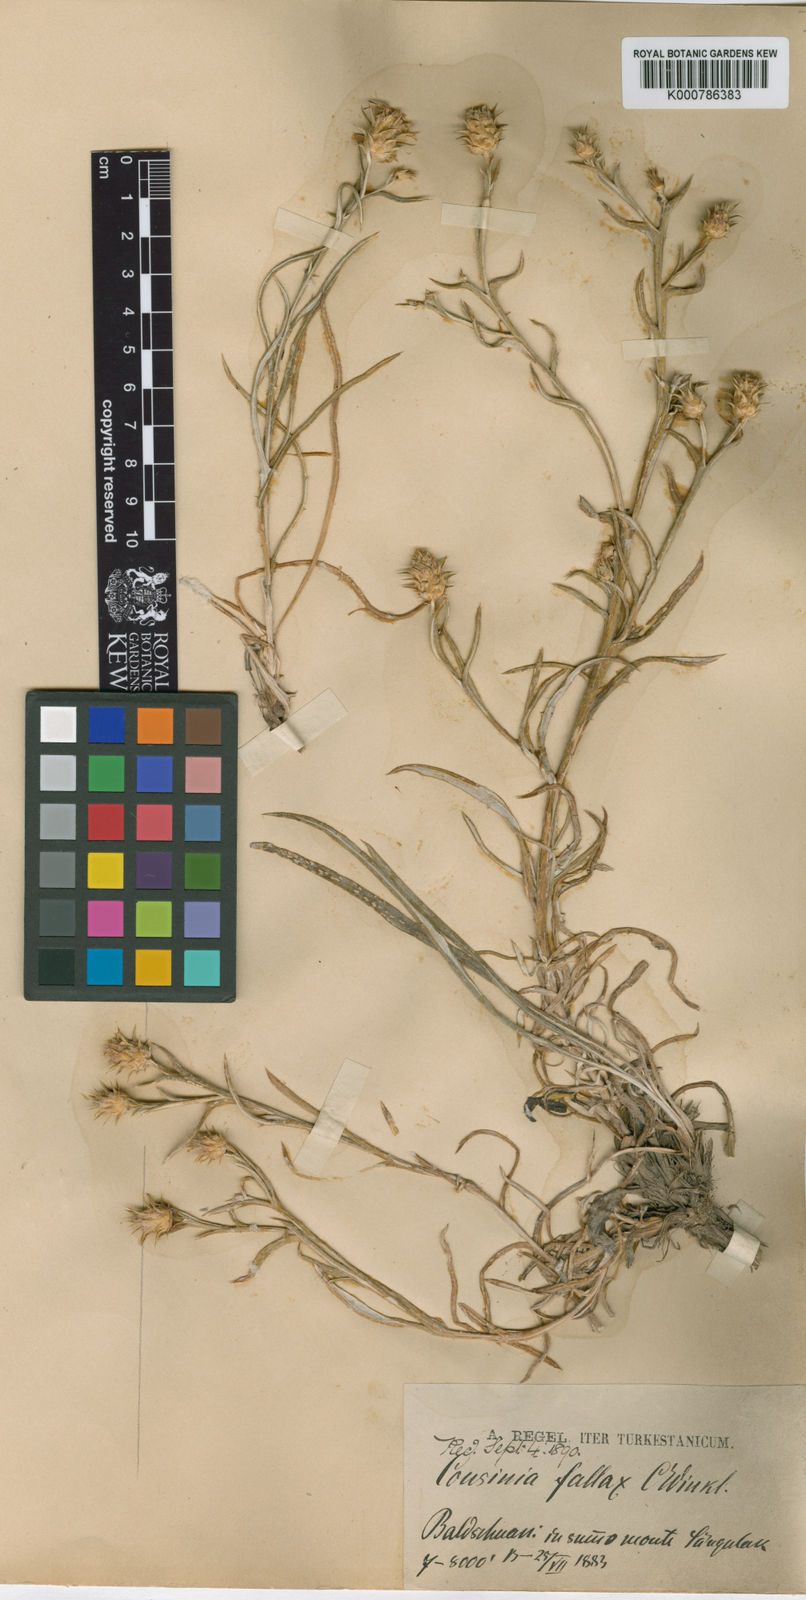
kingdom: Plantae
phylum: Tracheophyta
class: Magnoliopsida
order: Asterales
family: Asteraceae
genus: Cousinia
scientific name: Cousinia fallax
